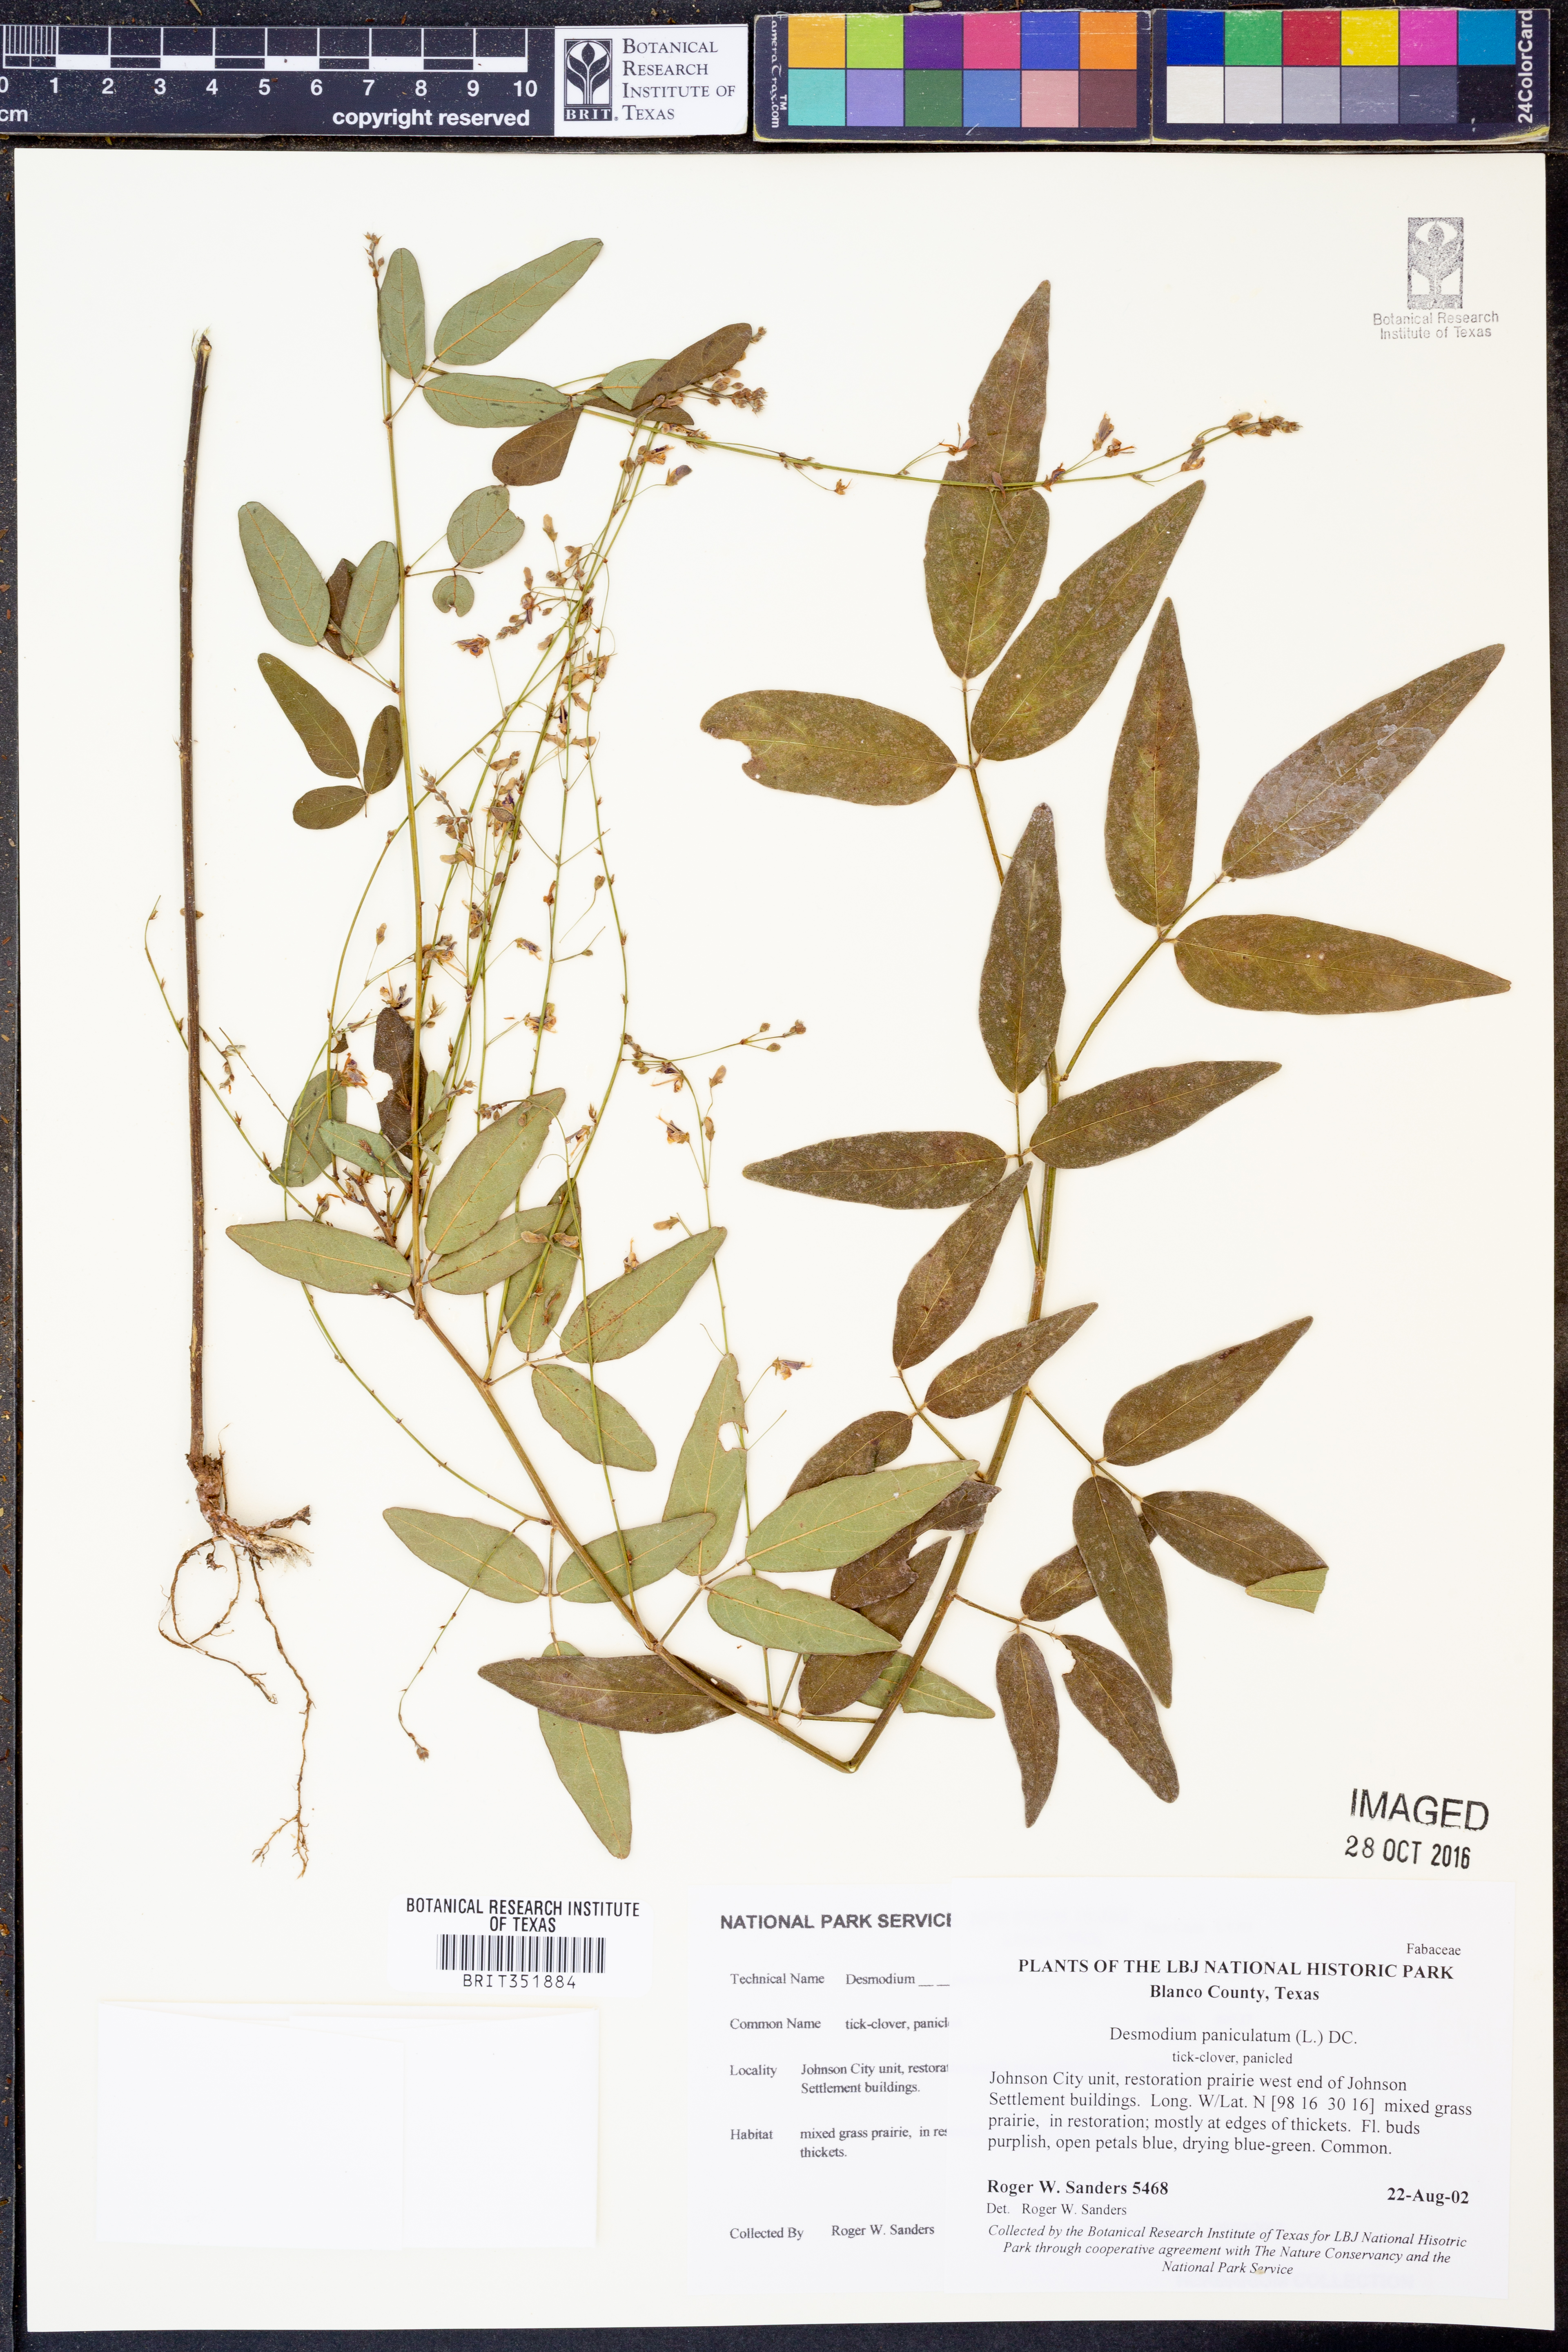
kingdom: Plantae
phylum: Tracheophyta
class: Magnoliopsida
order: Fabales
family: Fabaceae
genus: Desmodium
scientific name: Desmodium paniculatum
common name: Panicled tick-clover
